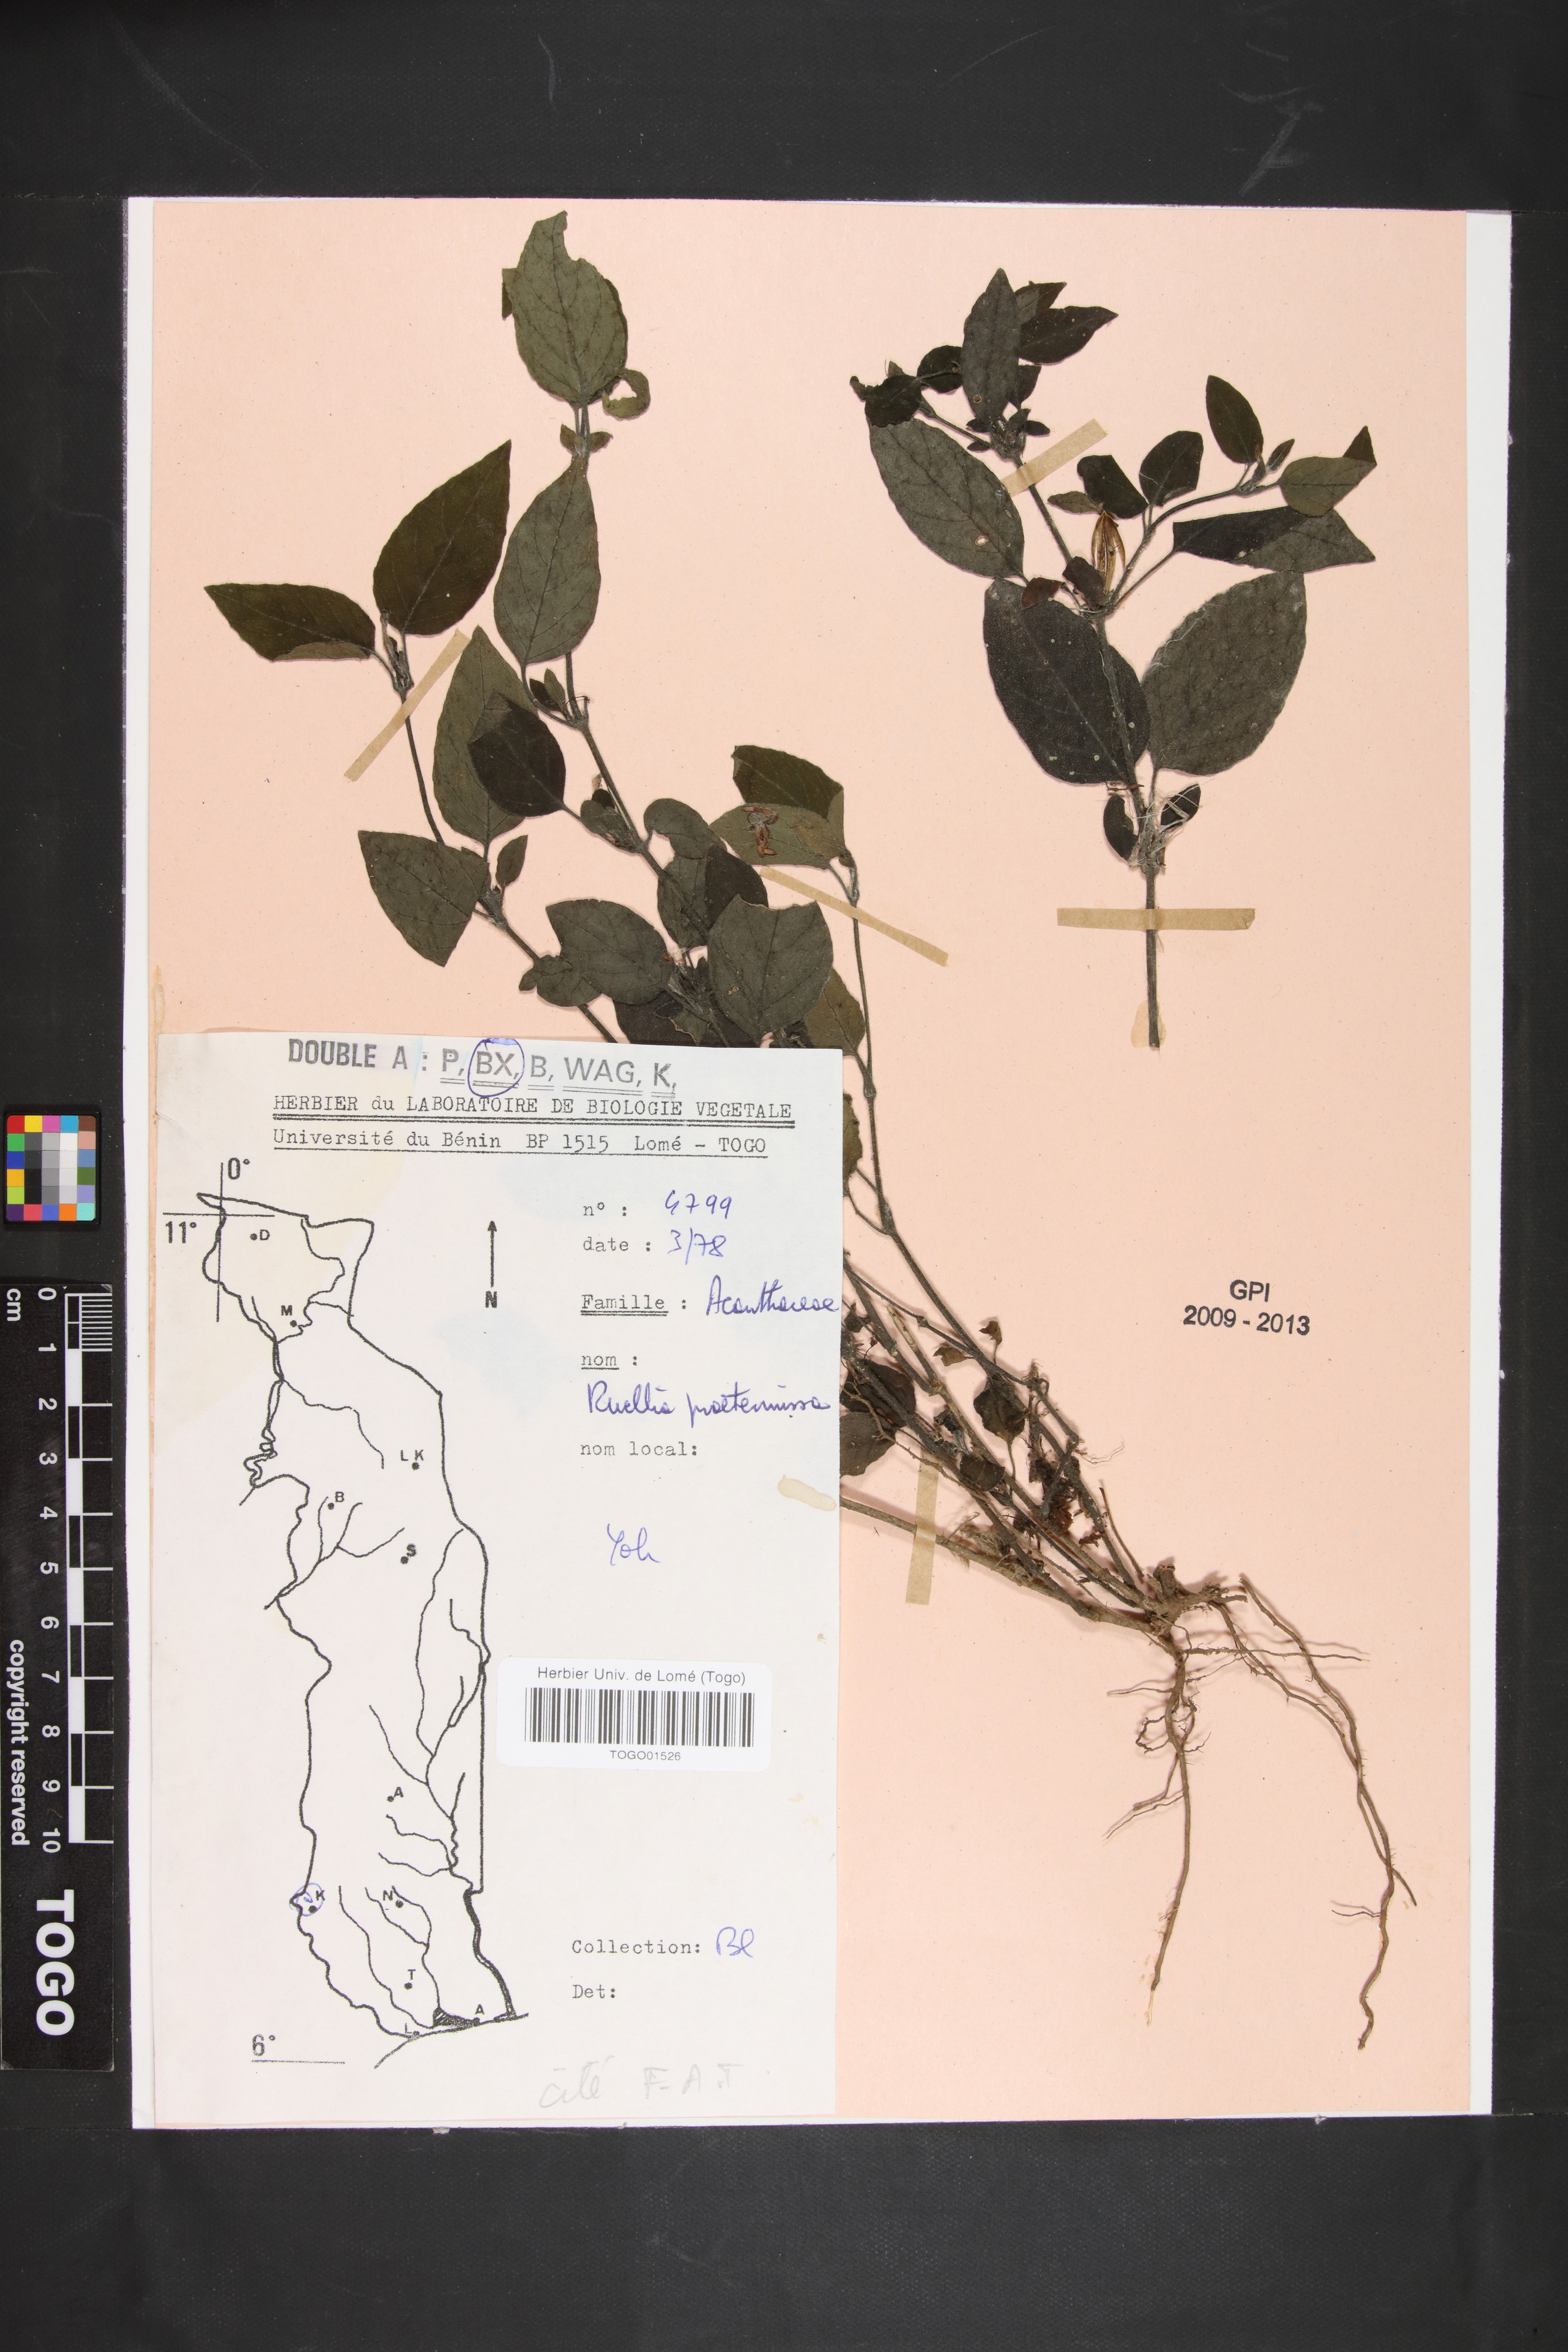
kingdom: Plantae
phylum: Tracheophyta
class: Magnoliopsida
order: Lamiales
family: Acanthaceae
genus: Ruellia
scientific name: Ruellia praetermissa
